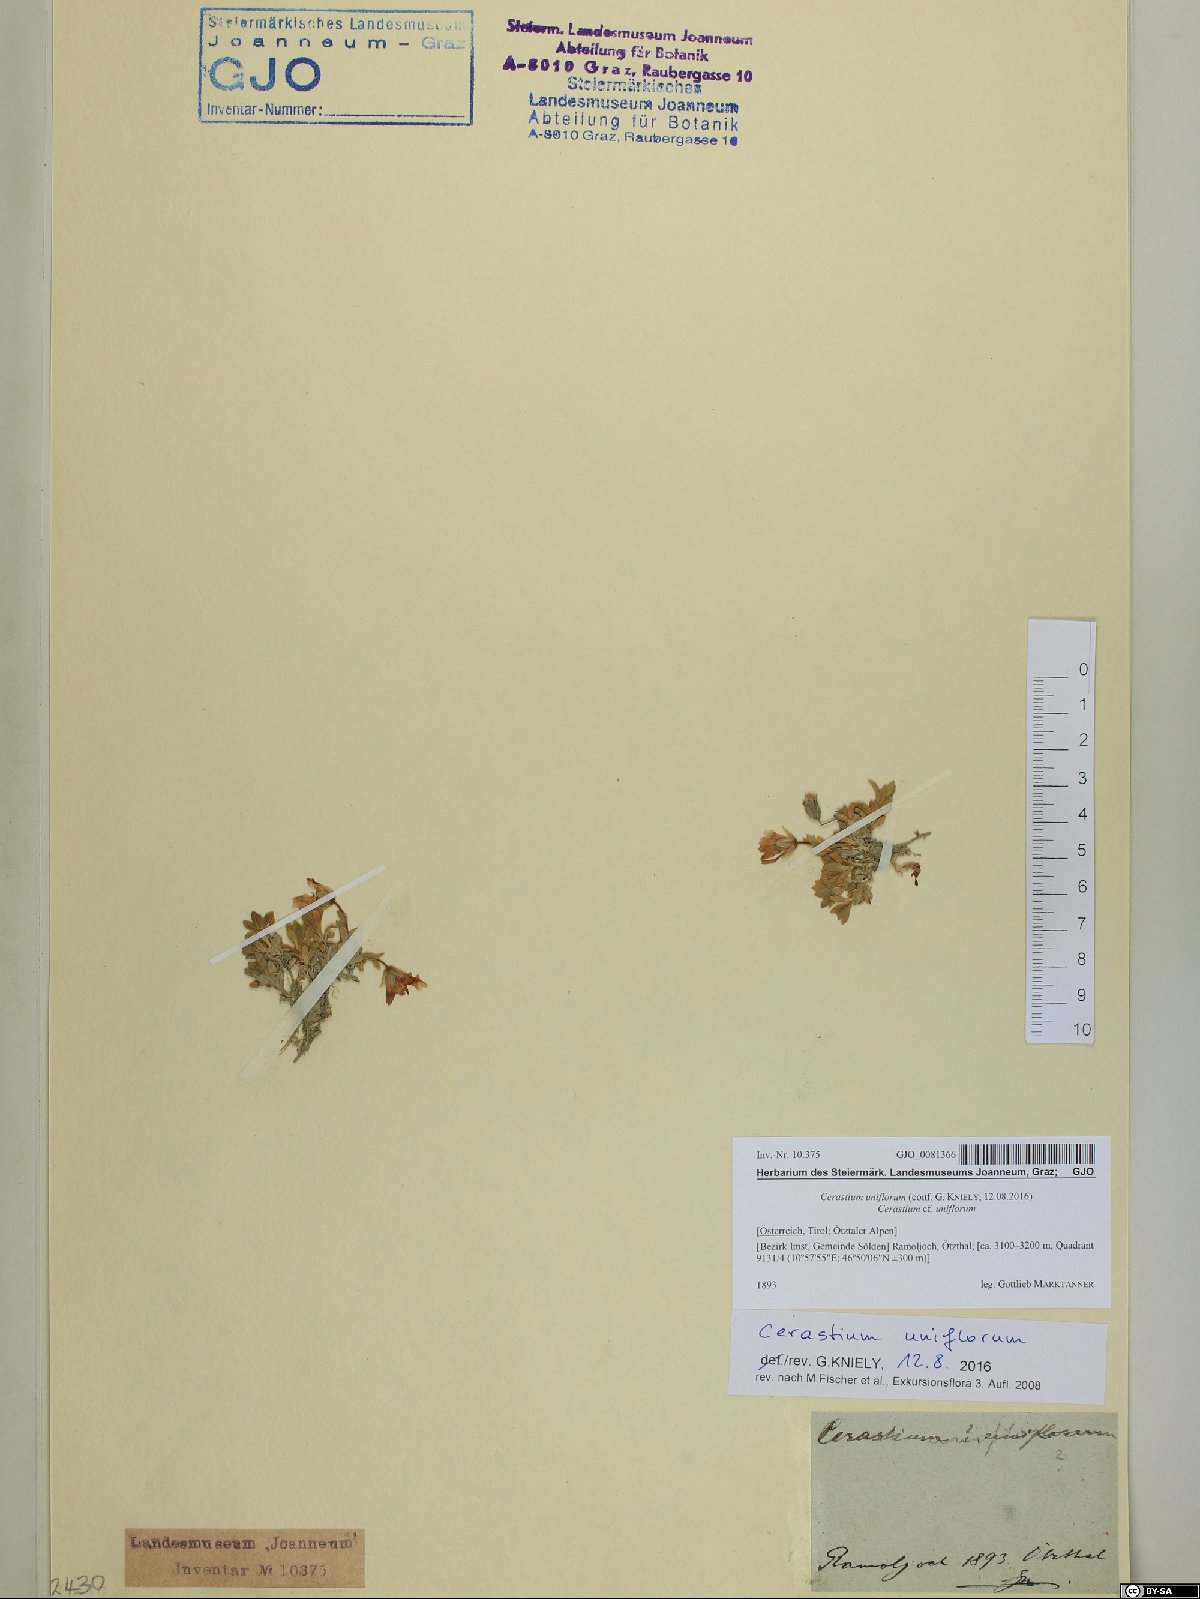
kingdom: Plantae
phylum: Tracheophyta
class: Magnoliopsida
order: Caryophyllales
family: Caryophyllaceae
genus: Cerastium
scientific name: Cerastium uniflorum
